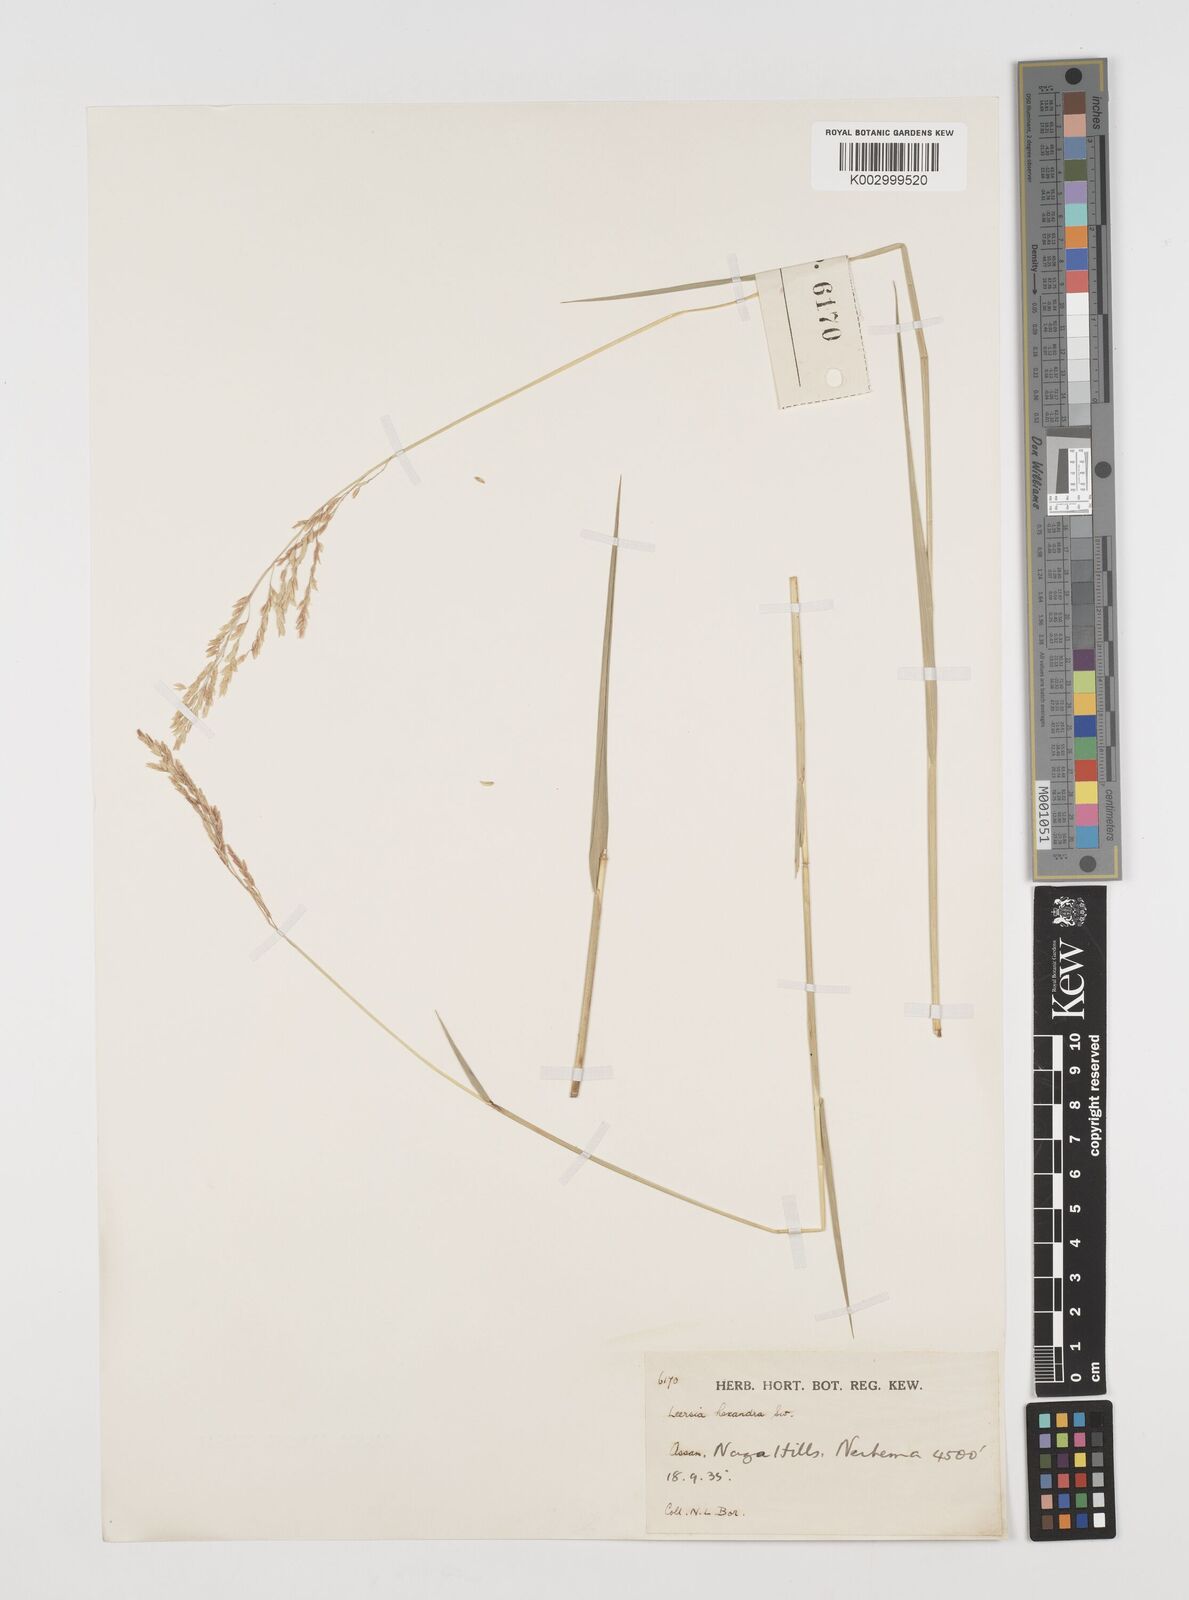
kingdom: Plantae
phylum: Tracheophyta
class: Liliopsida
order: Poales
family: Poaceae
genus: Leersia
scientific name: Leersia hexandra
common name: Southern cut grass
